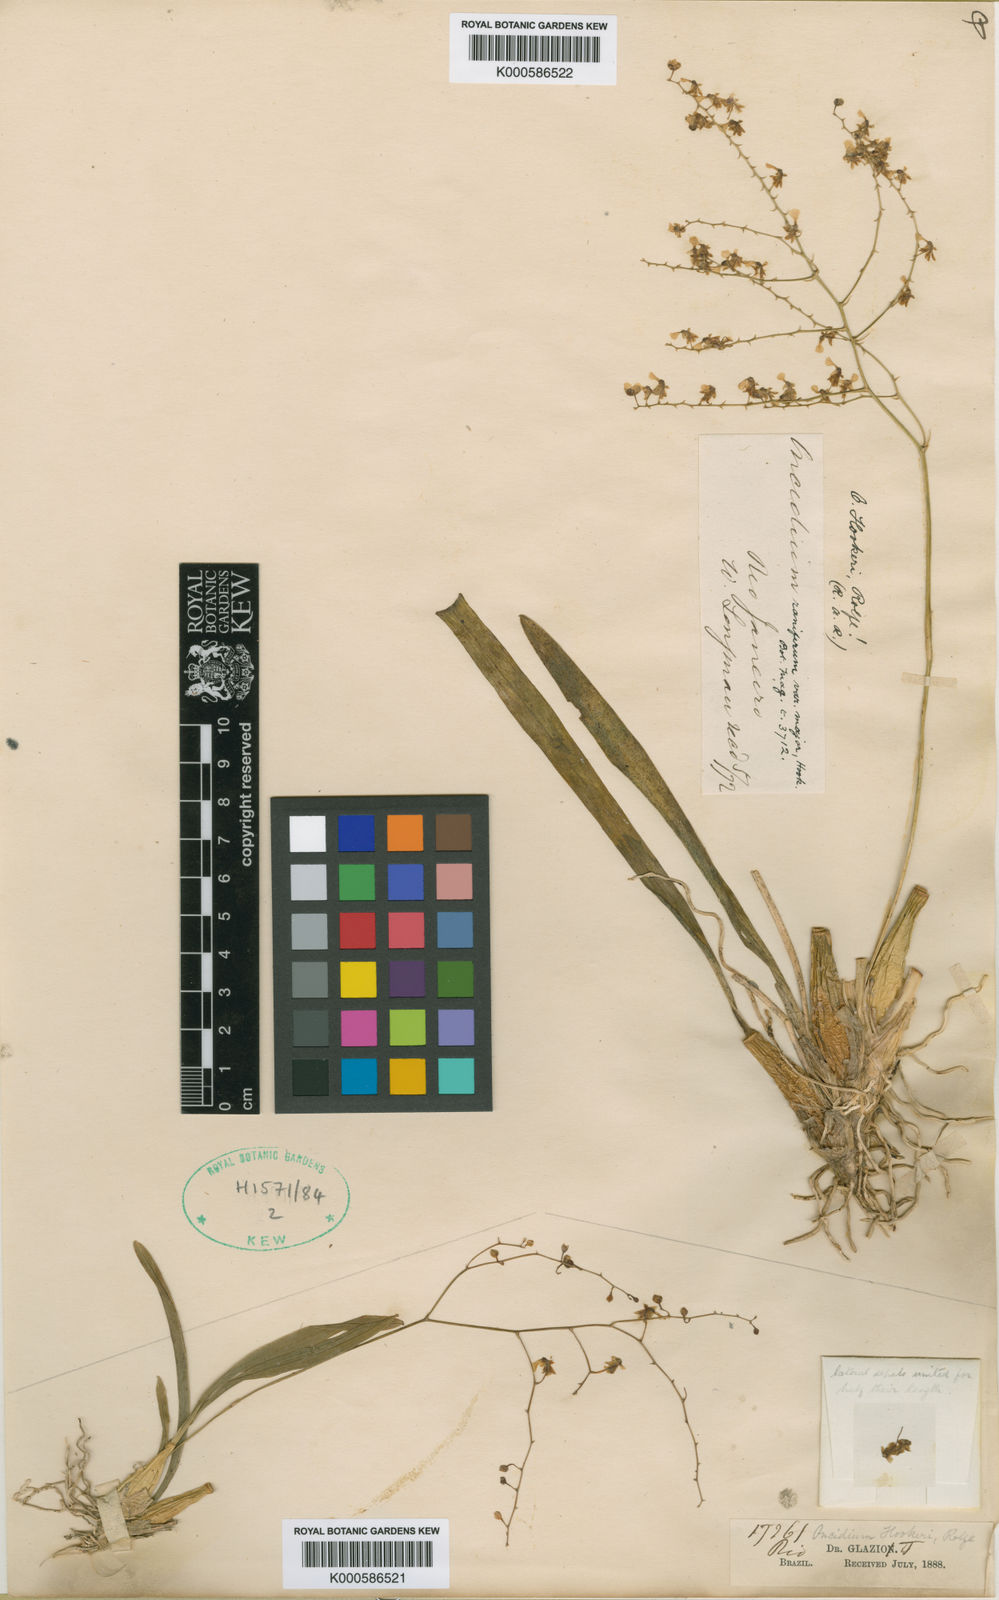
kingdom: Plantae
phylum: Tracheophyta
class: Liliopsida
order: Asparagales
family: Orchidaceae
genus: Gomesa
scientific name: Gomesa ranifera
